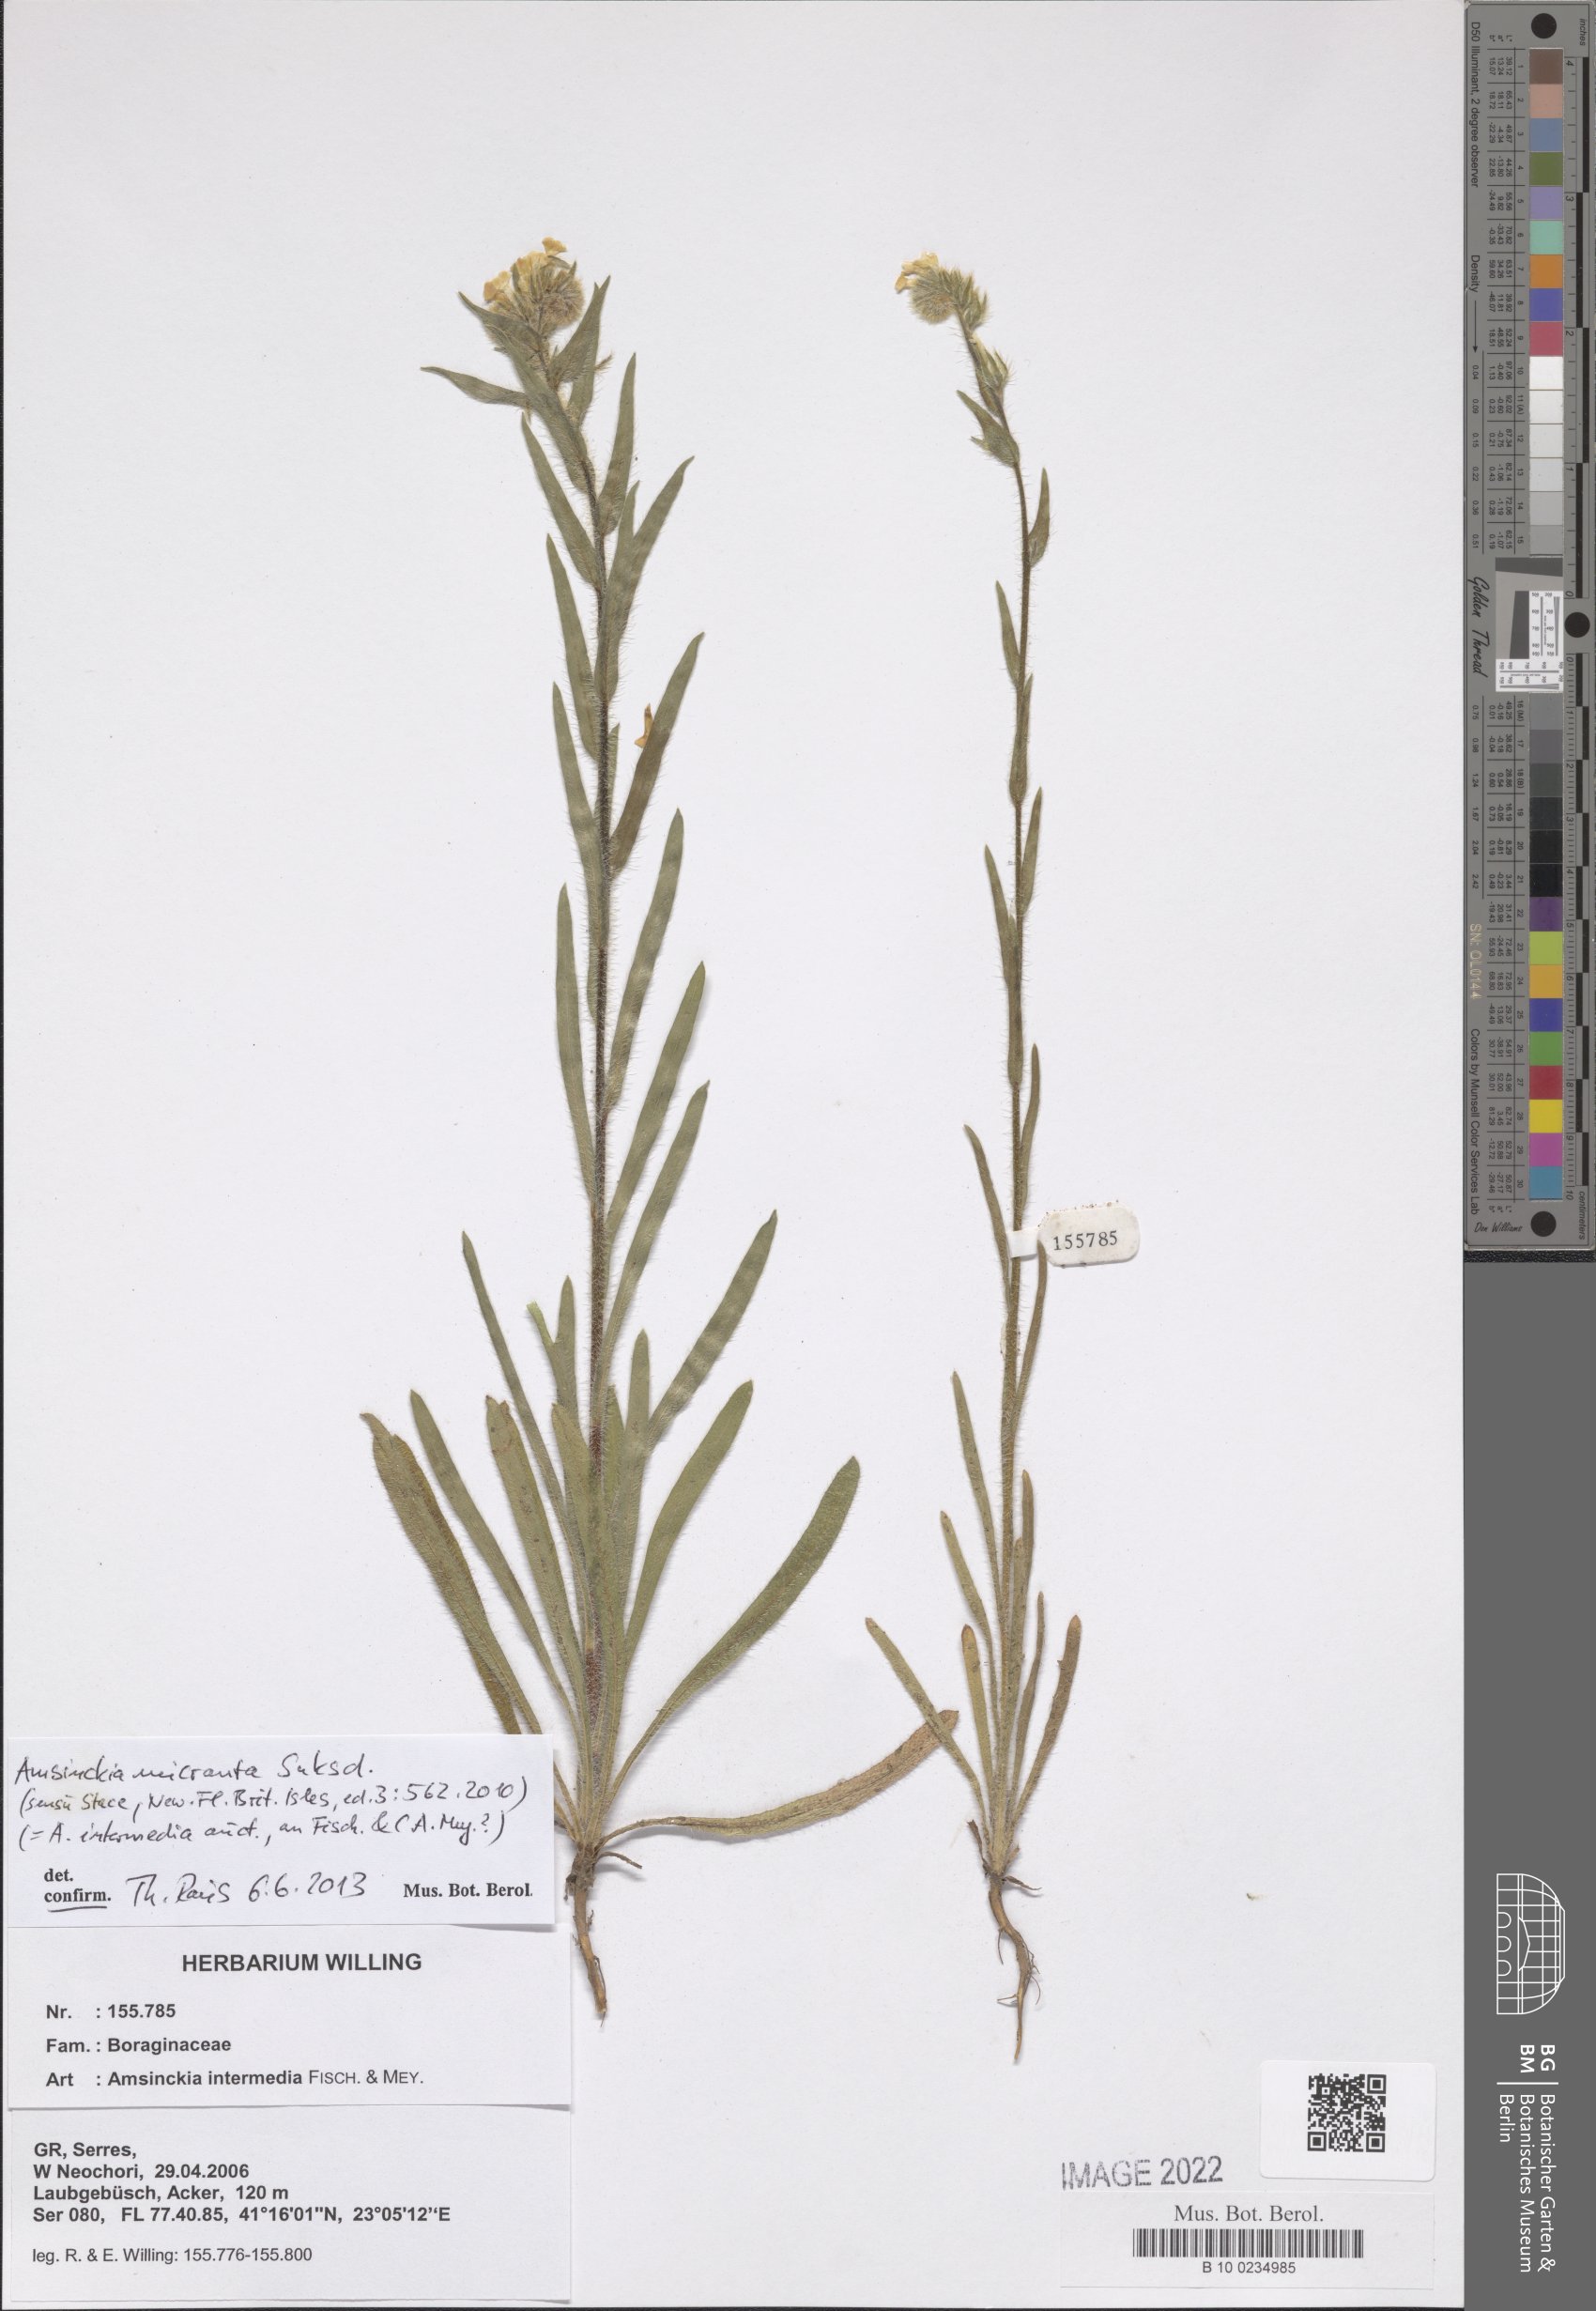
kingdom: Plantae
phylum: Tracheophyta
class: Magnoliopsida
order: Boraginales
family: Boraginaceae
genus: Amsinckia
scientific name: Amsinckia menziesii
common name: Menzies' fiddleneck
